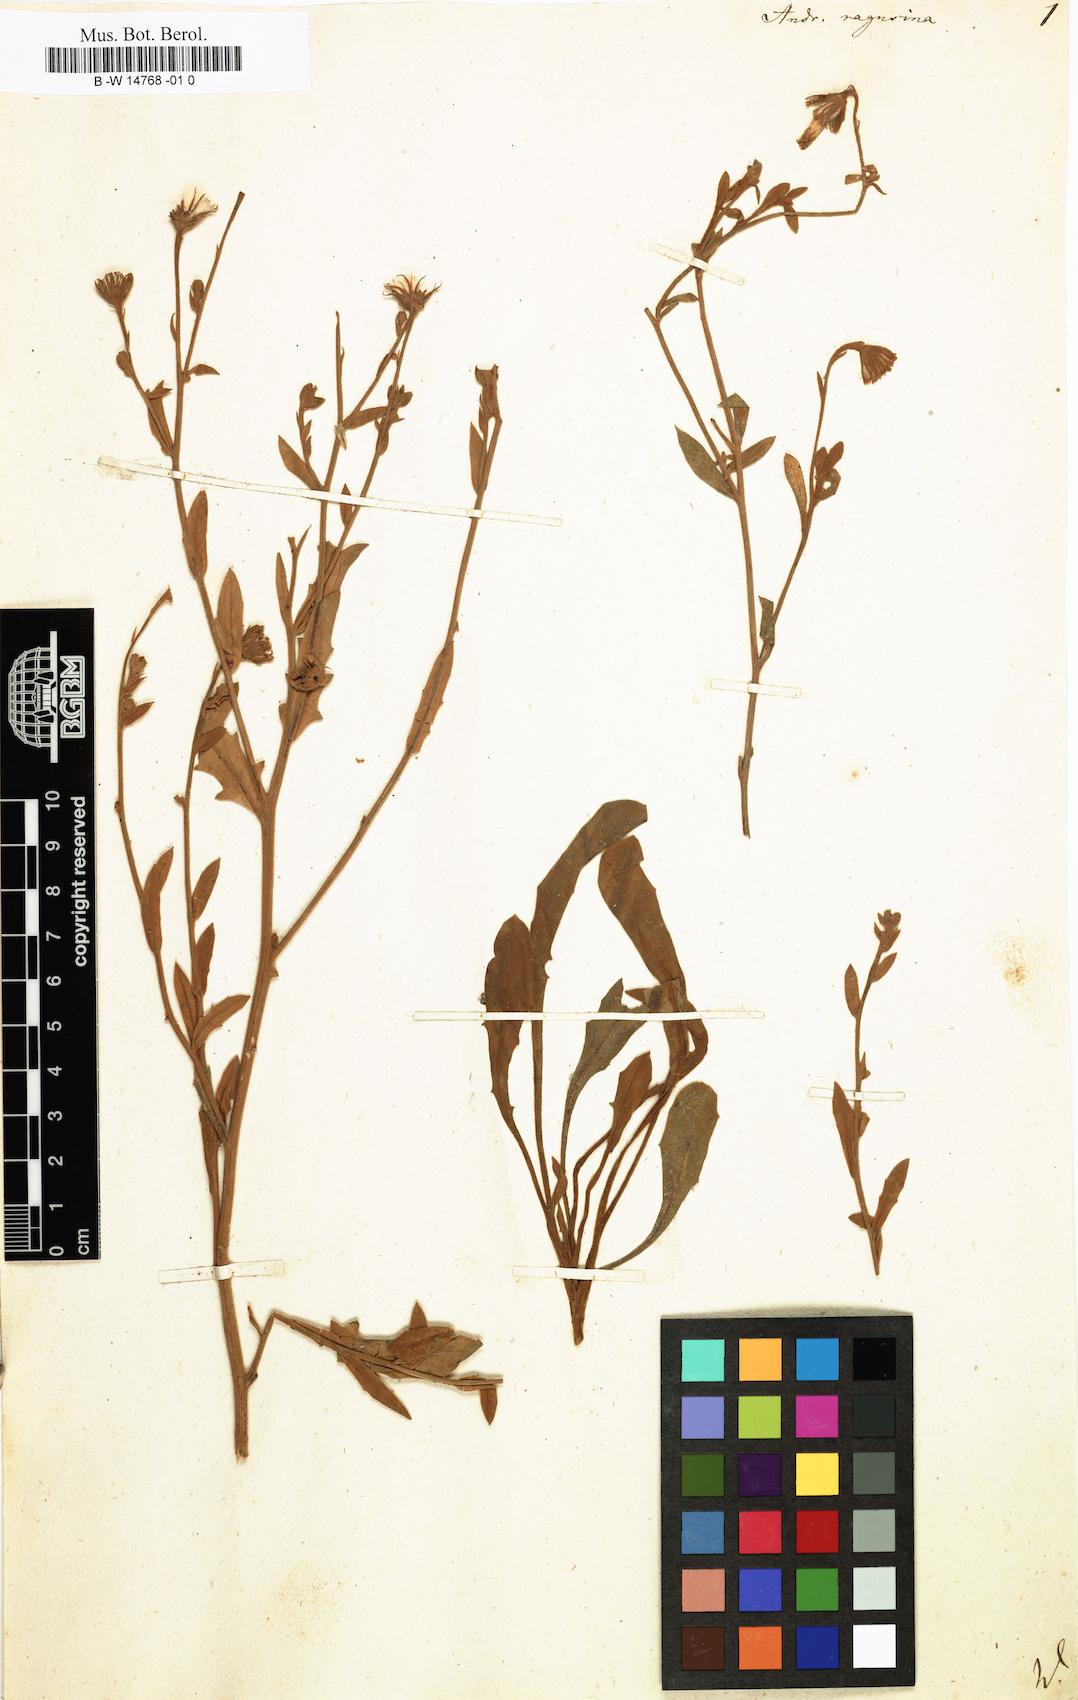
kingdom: Plantae
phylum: Tracheophyta
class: Magnoliopsida
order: Asterales
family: Asteraceae
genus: Andryala
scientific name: Andryala ragusina
